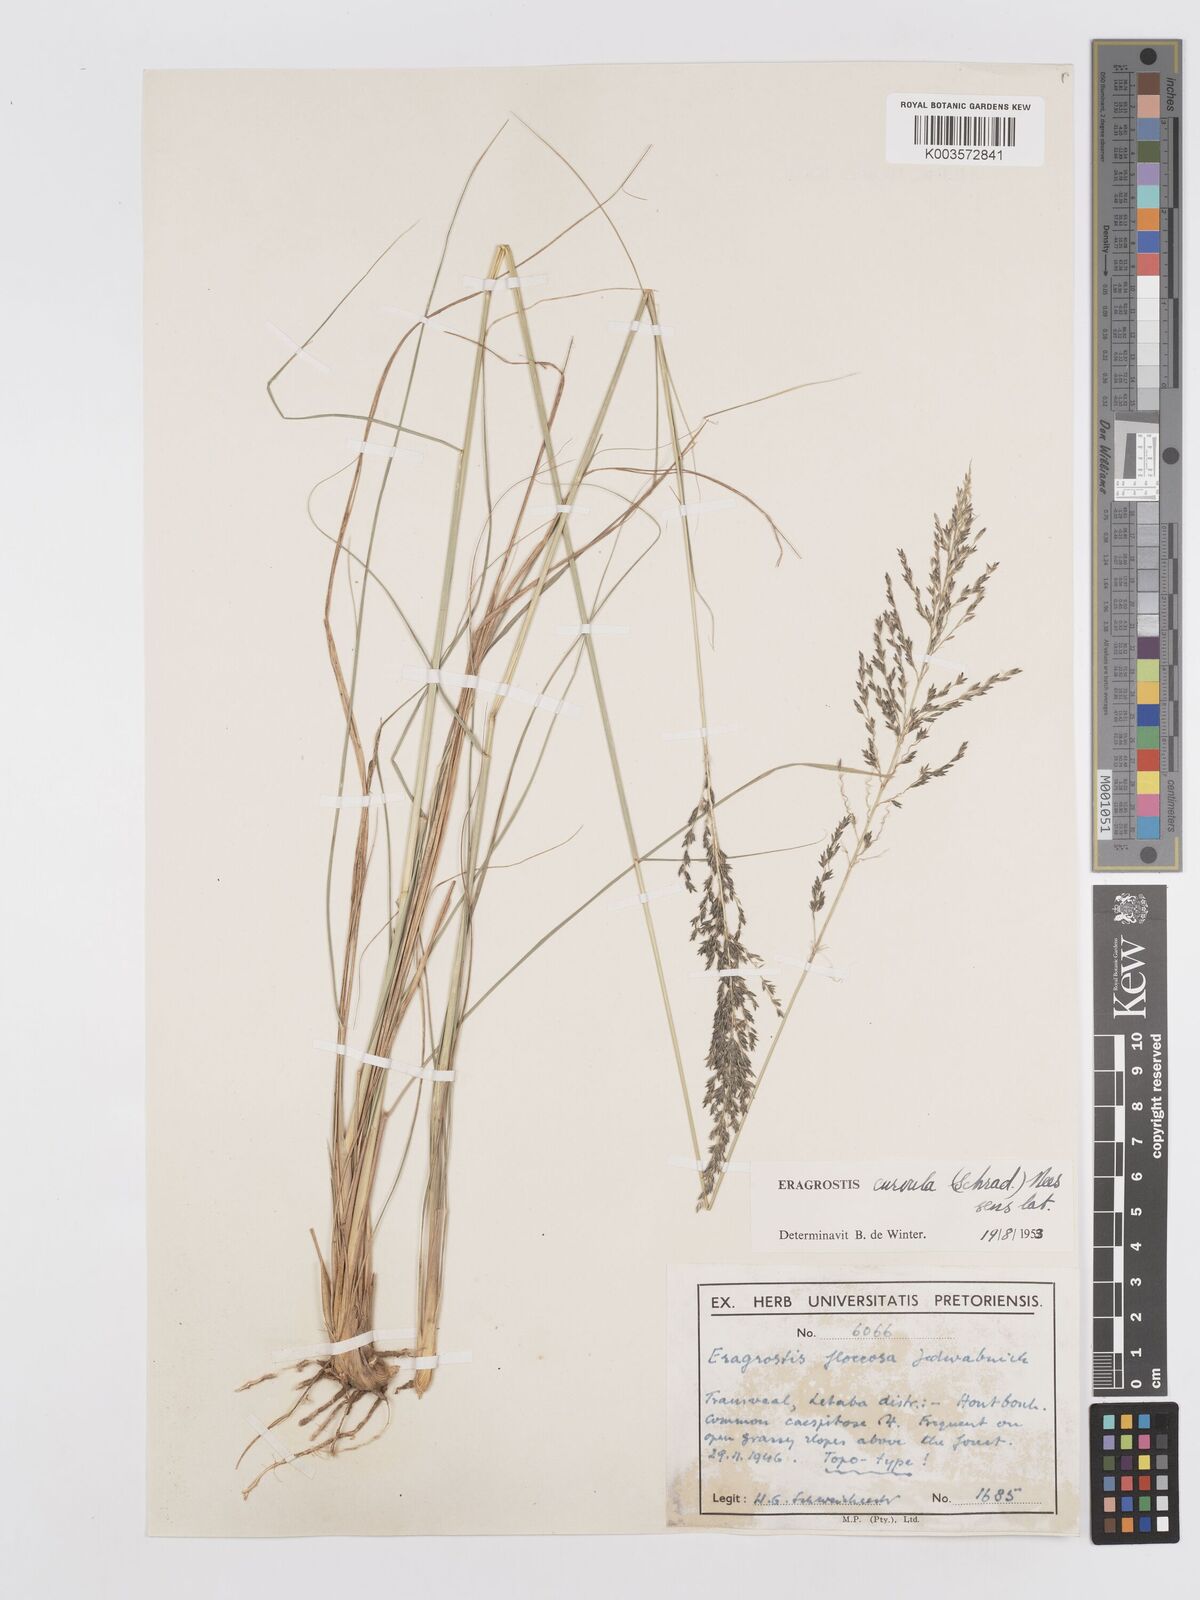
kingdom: Plantae
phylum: Tracheophyta
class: Liliopsida
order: Poales
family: Poaceae
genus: Eragrostis
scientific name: Eragrostis curvula
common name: African love-grass
